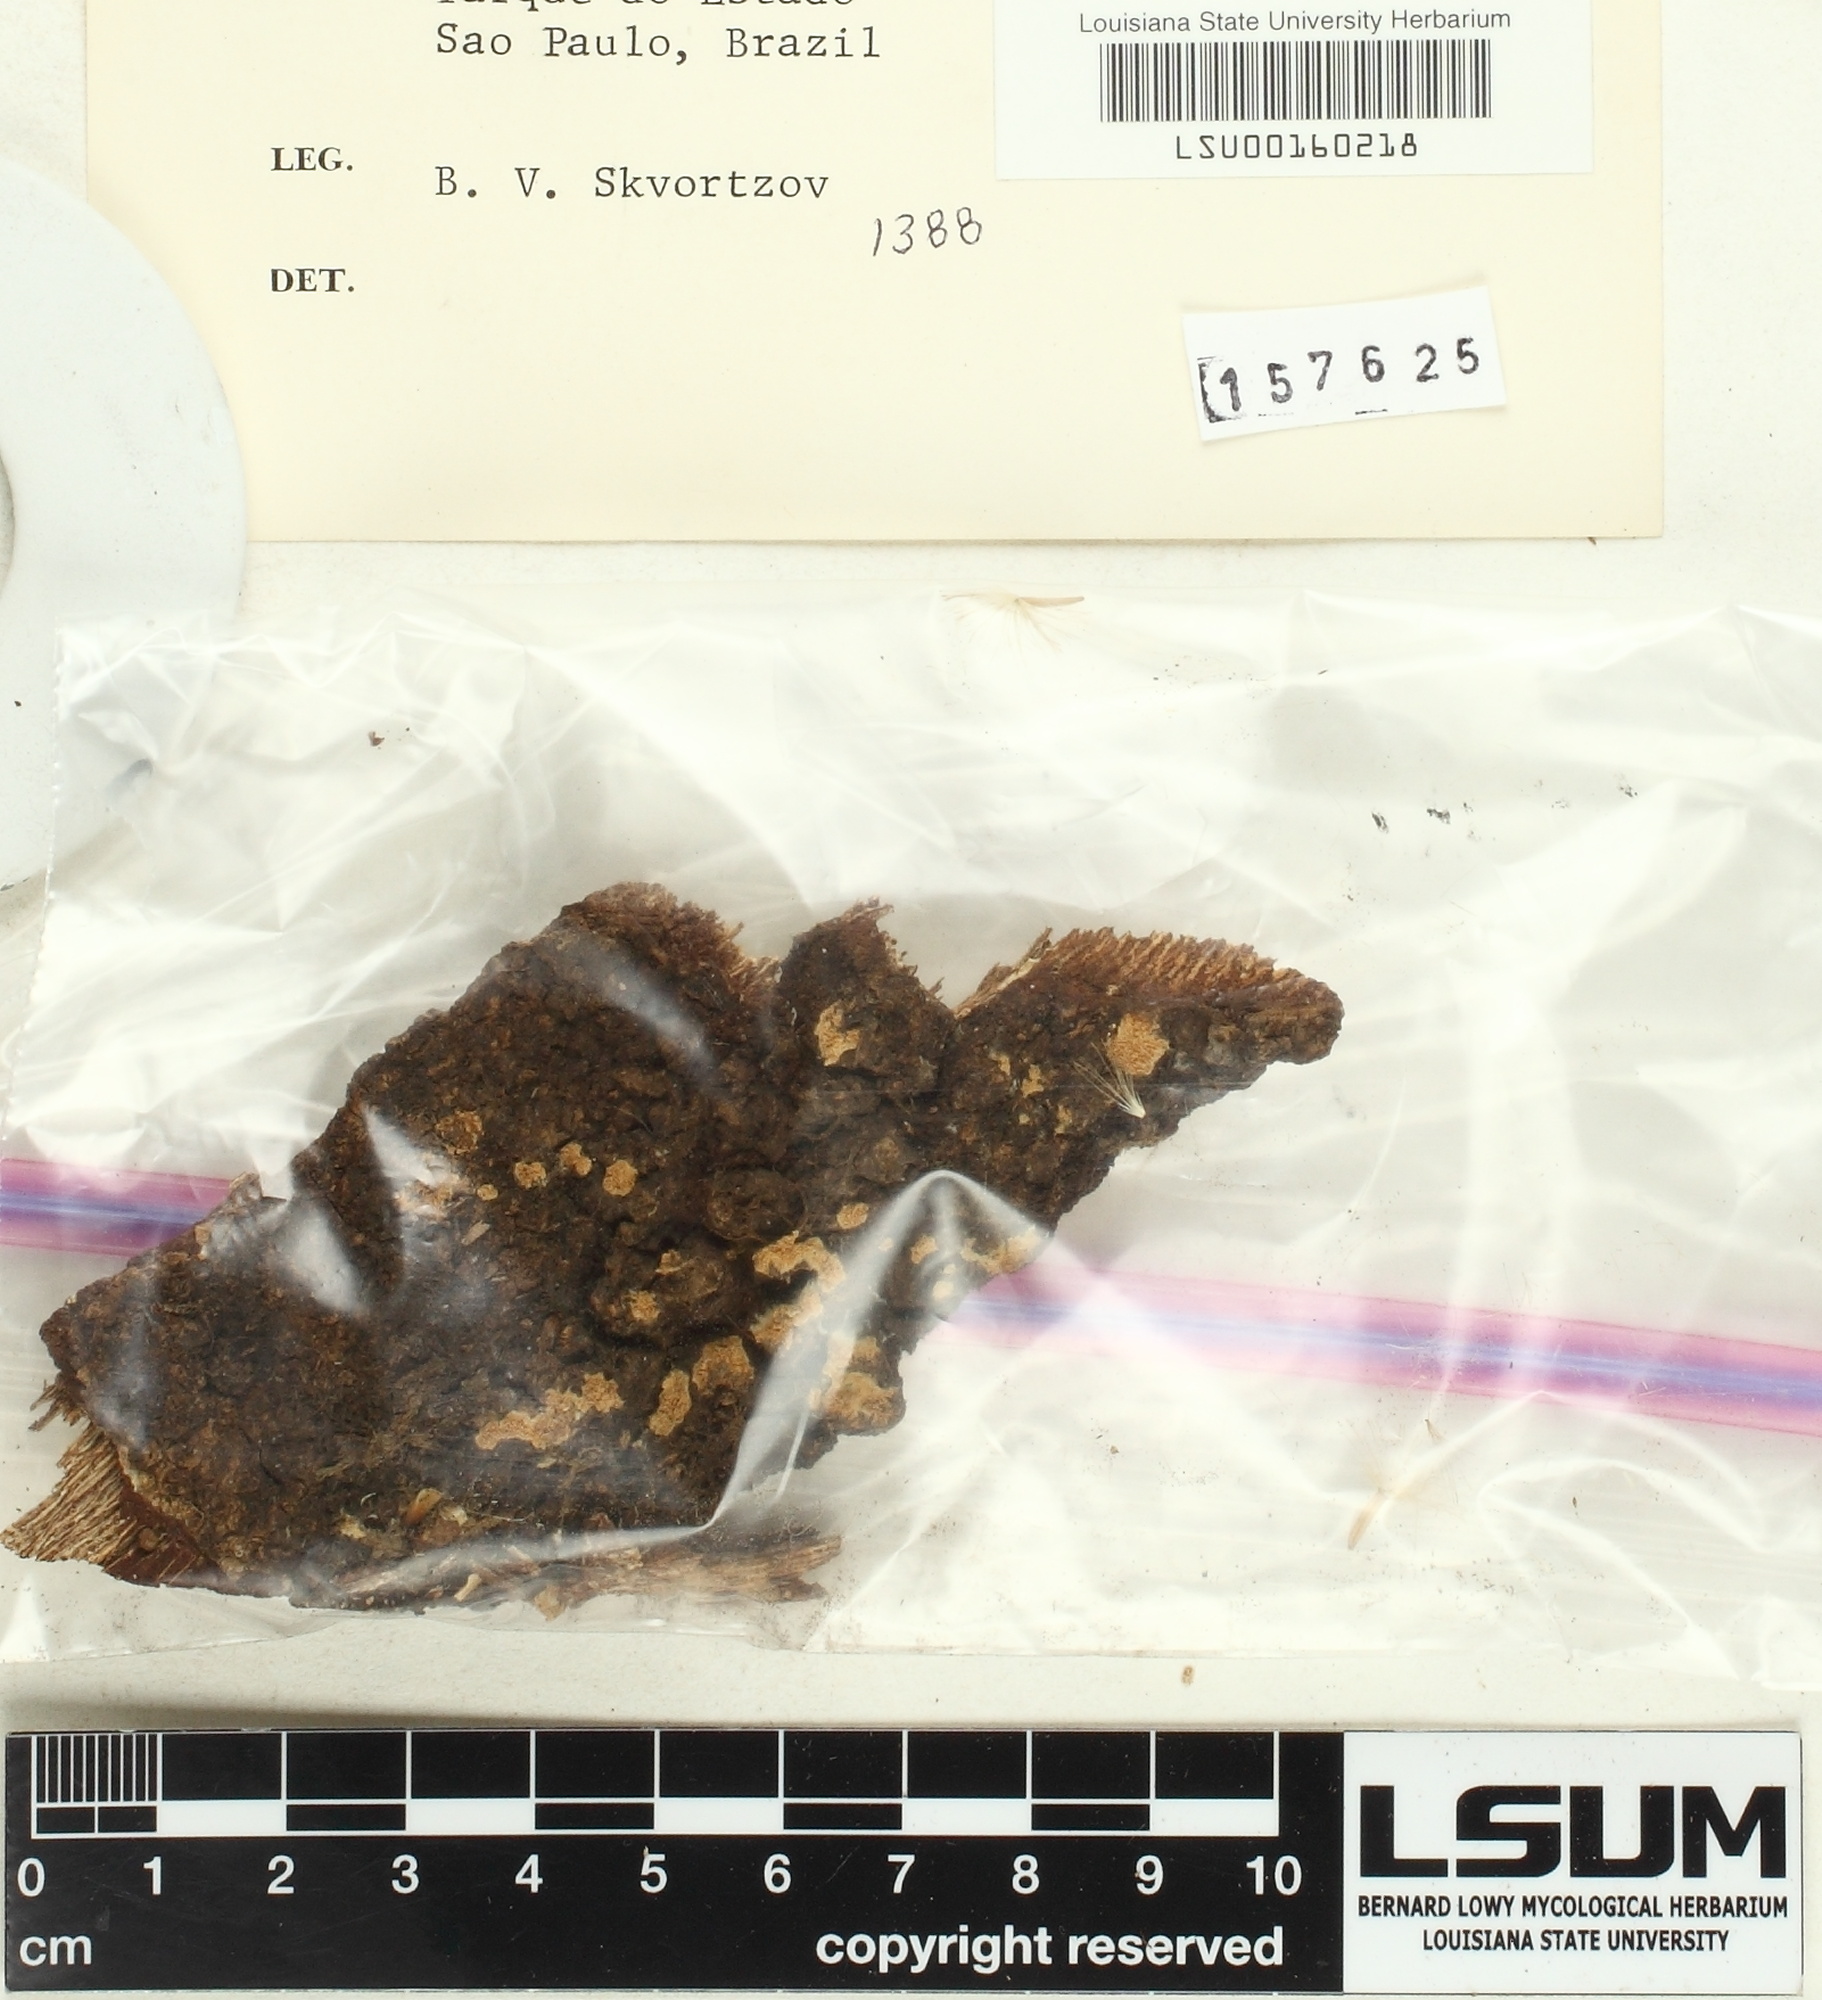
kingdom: Fungi
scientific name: Fungi
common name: Fungi
